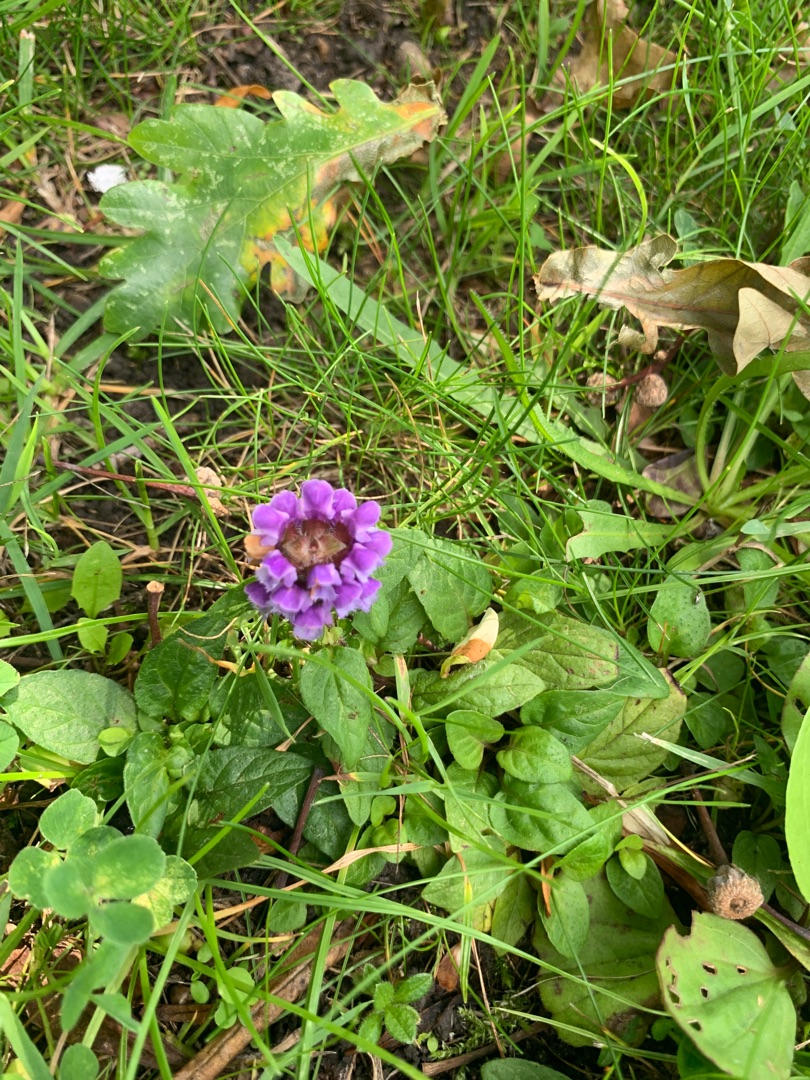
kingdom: Plantae
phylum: Tracheophyta
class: Magnoliopsida
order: Lamiales
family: Lamiaceae
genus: Prunella
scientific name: Prunella vulgaris
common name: Almindelig brunelle
